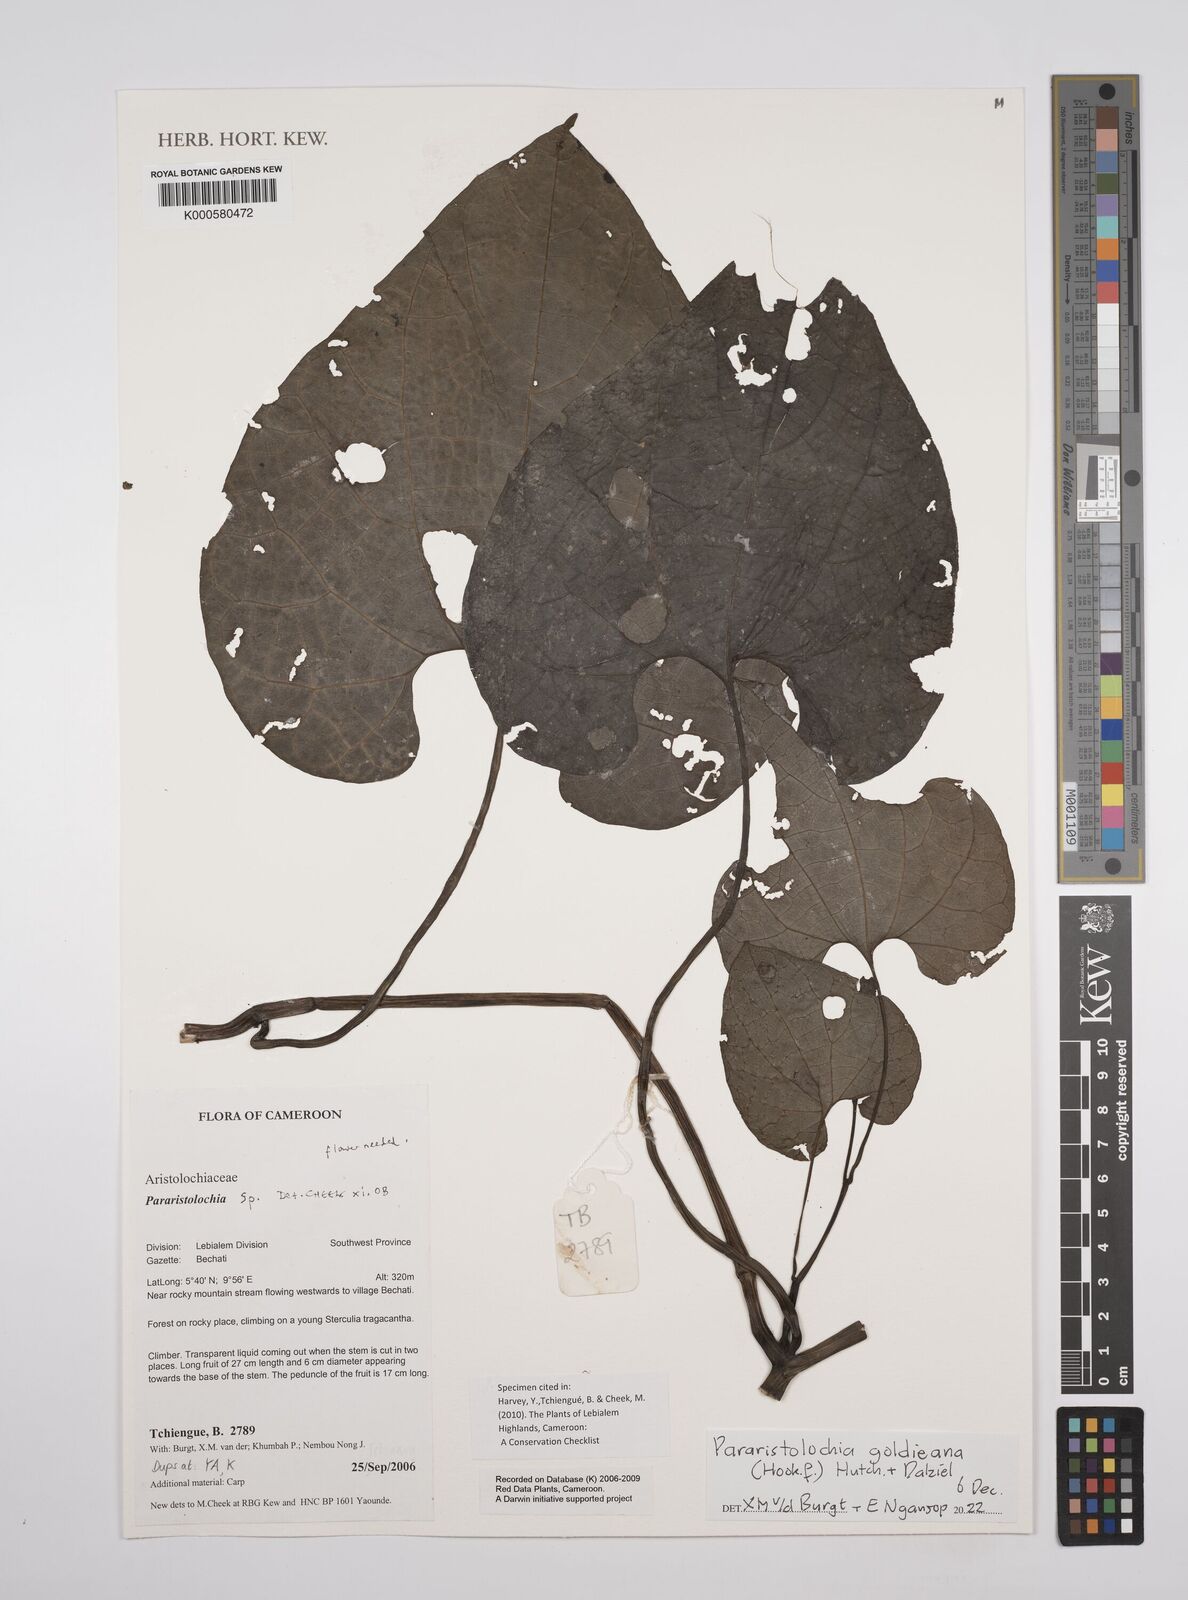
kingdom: Plantae
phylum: Tracheophyta
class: Magnoliopsida
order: Piperales
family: Aristolochiaceae
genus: Aristolochia
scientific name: Aristolochia
